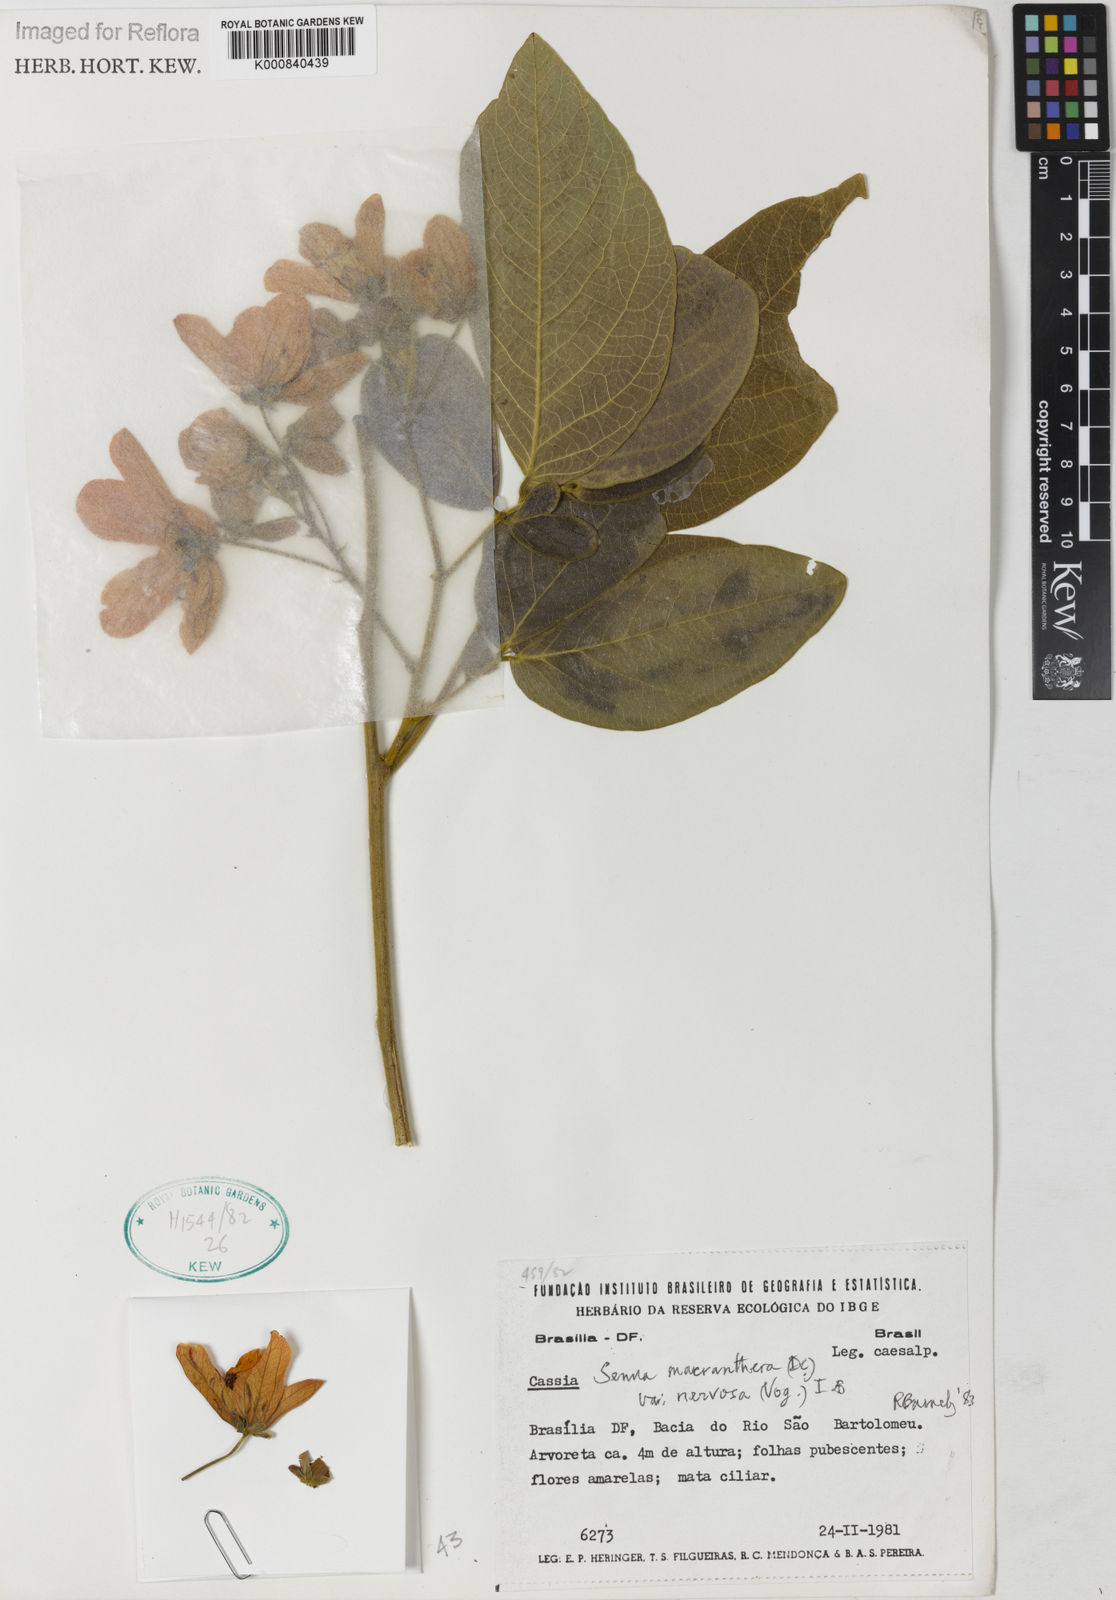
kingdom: Plantae
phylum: Tracheophyta
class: Magnoliopsida
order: Fabales
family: Fabaceae
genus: Senna
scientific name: Senna macranthera
